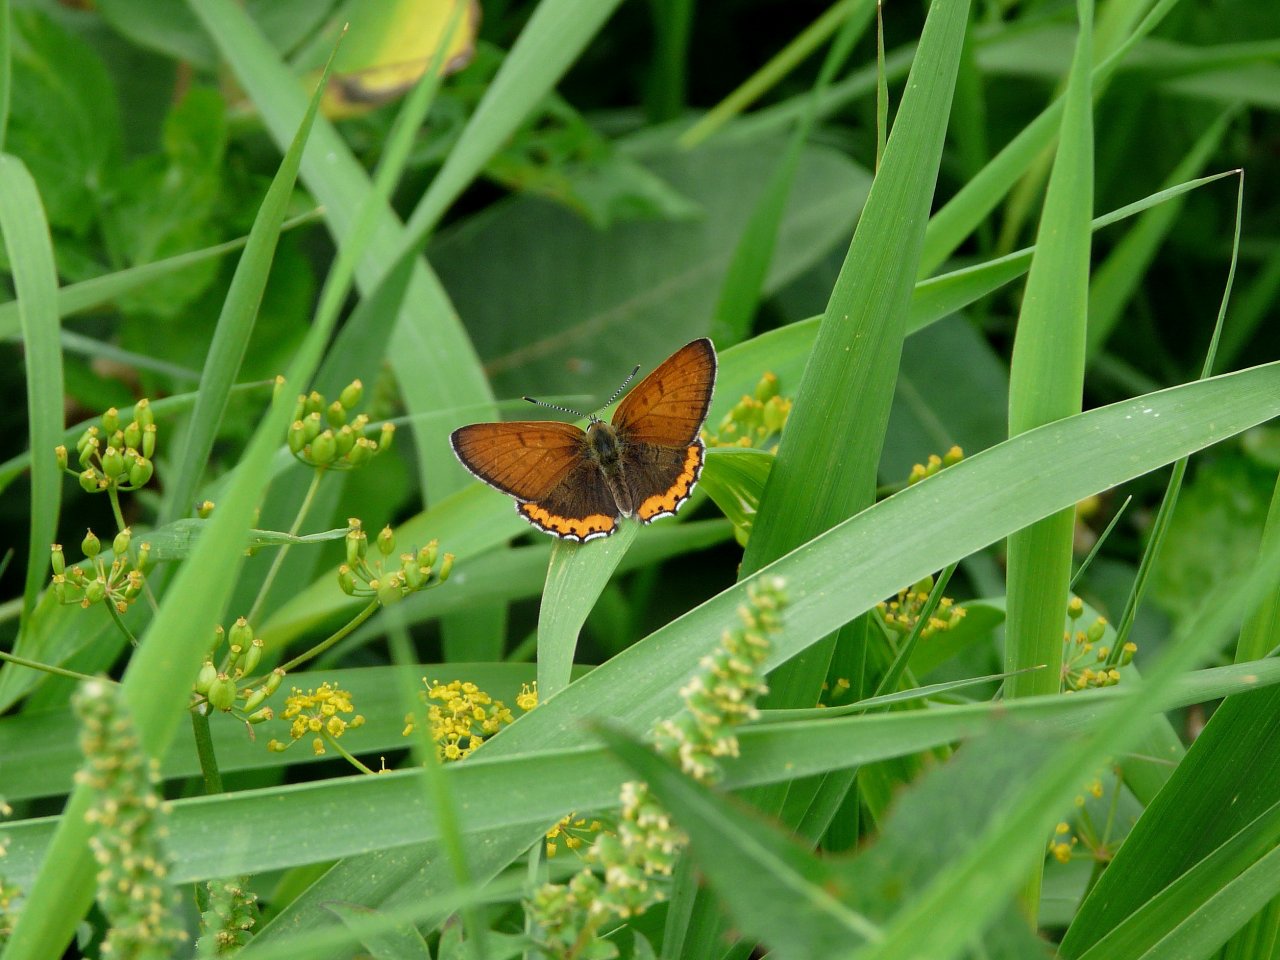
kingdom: Animalia
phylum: Arthropoda
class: Insecta
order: Lepidoptera
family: Sesiidae
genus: Sesia
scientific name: Sesia Lycaena hyllus
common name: Bronze Copper
